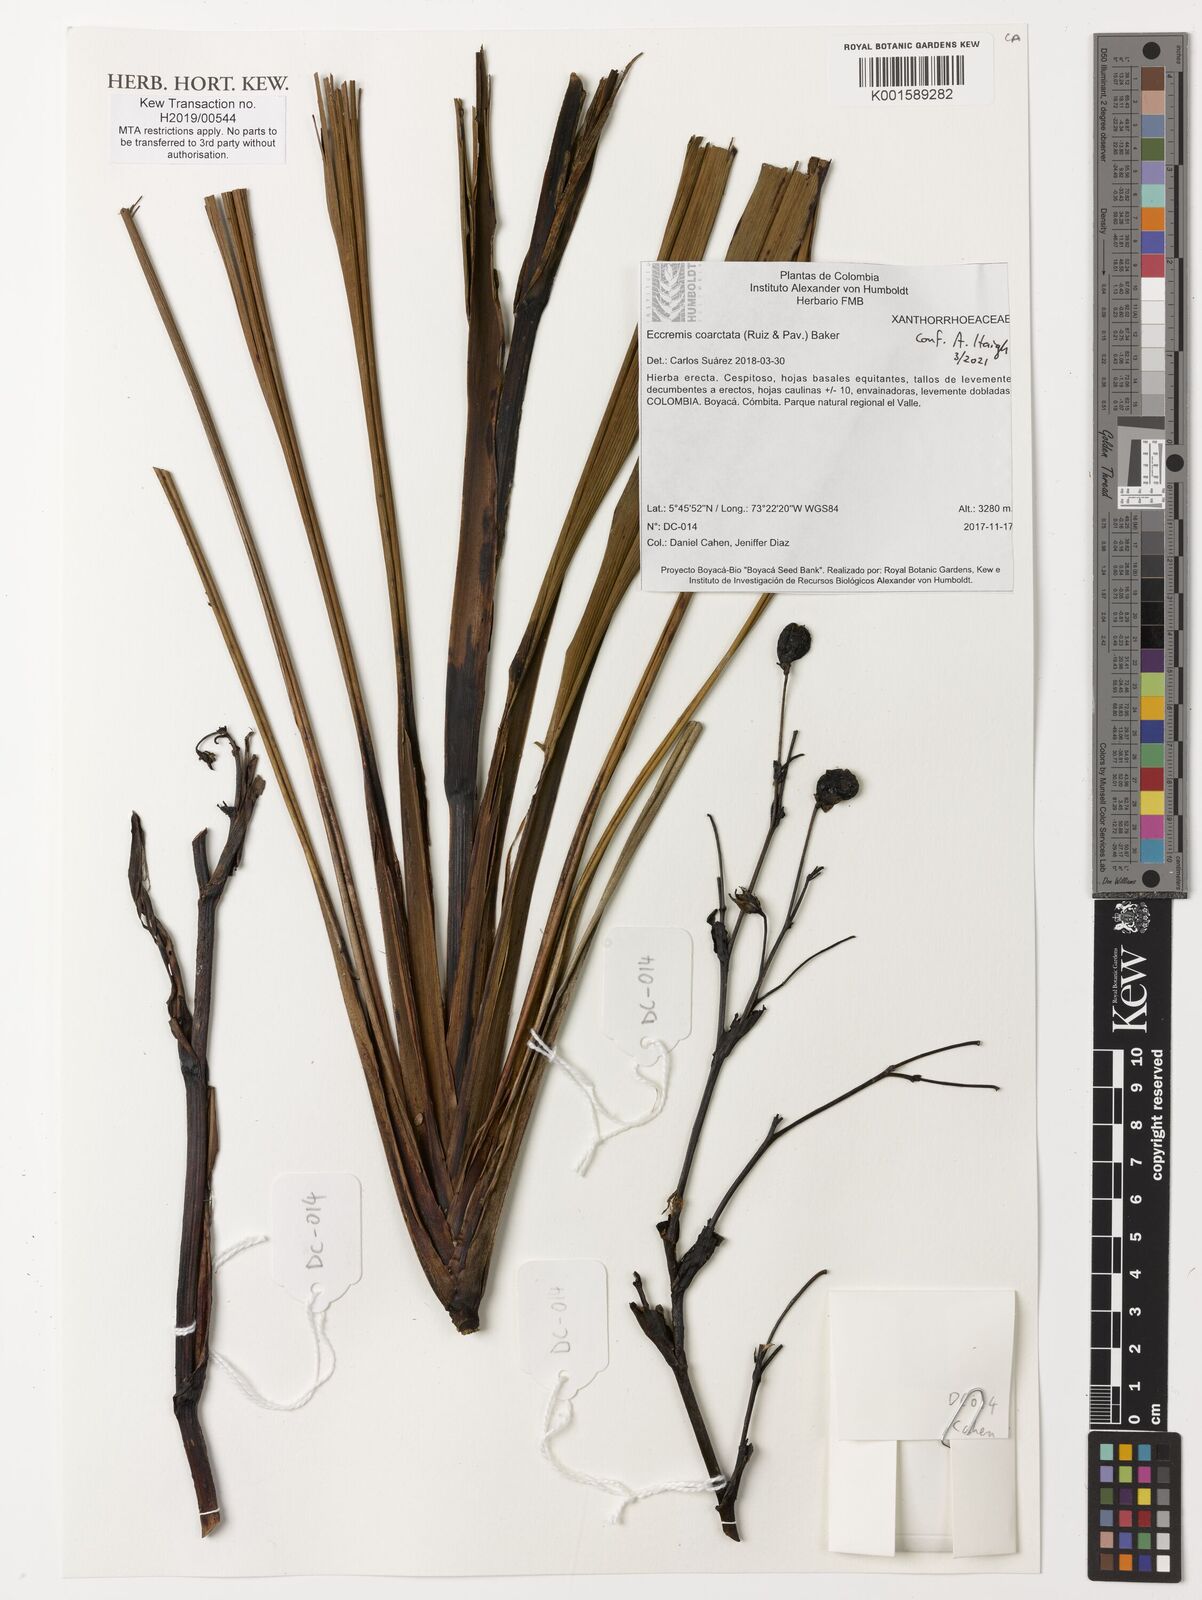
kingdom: Plantae
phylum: Tracheophyta
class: Liliopsida
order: Asparagales
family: Xanthorrhoeaceae
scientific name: Xanthorrhoeaceae
